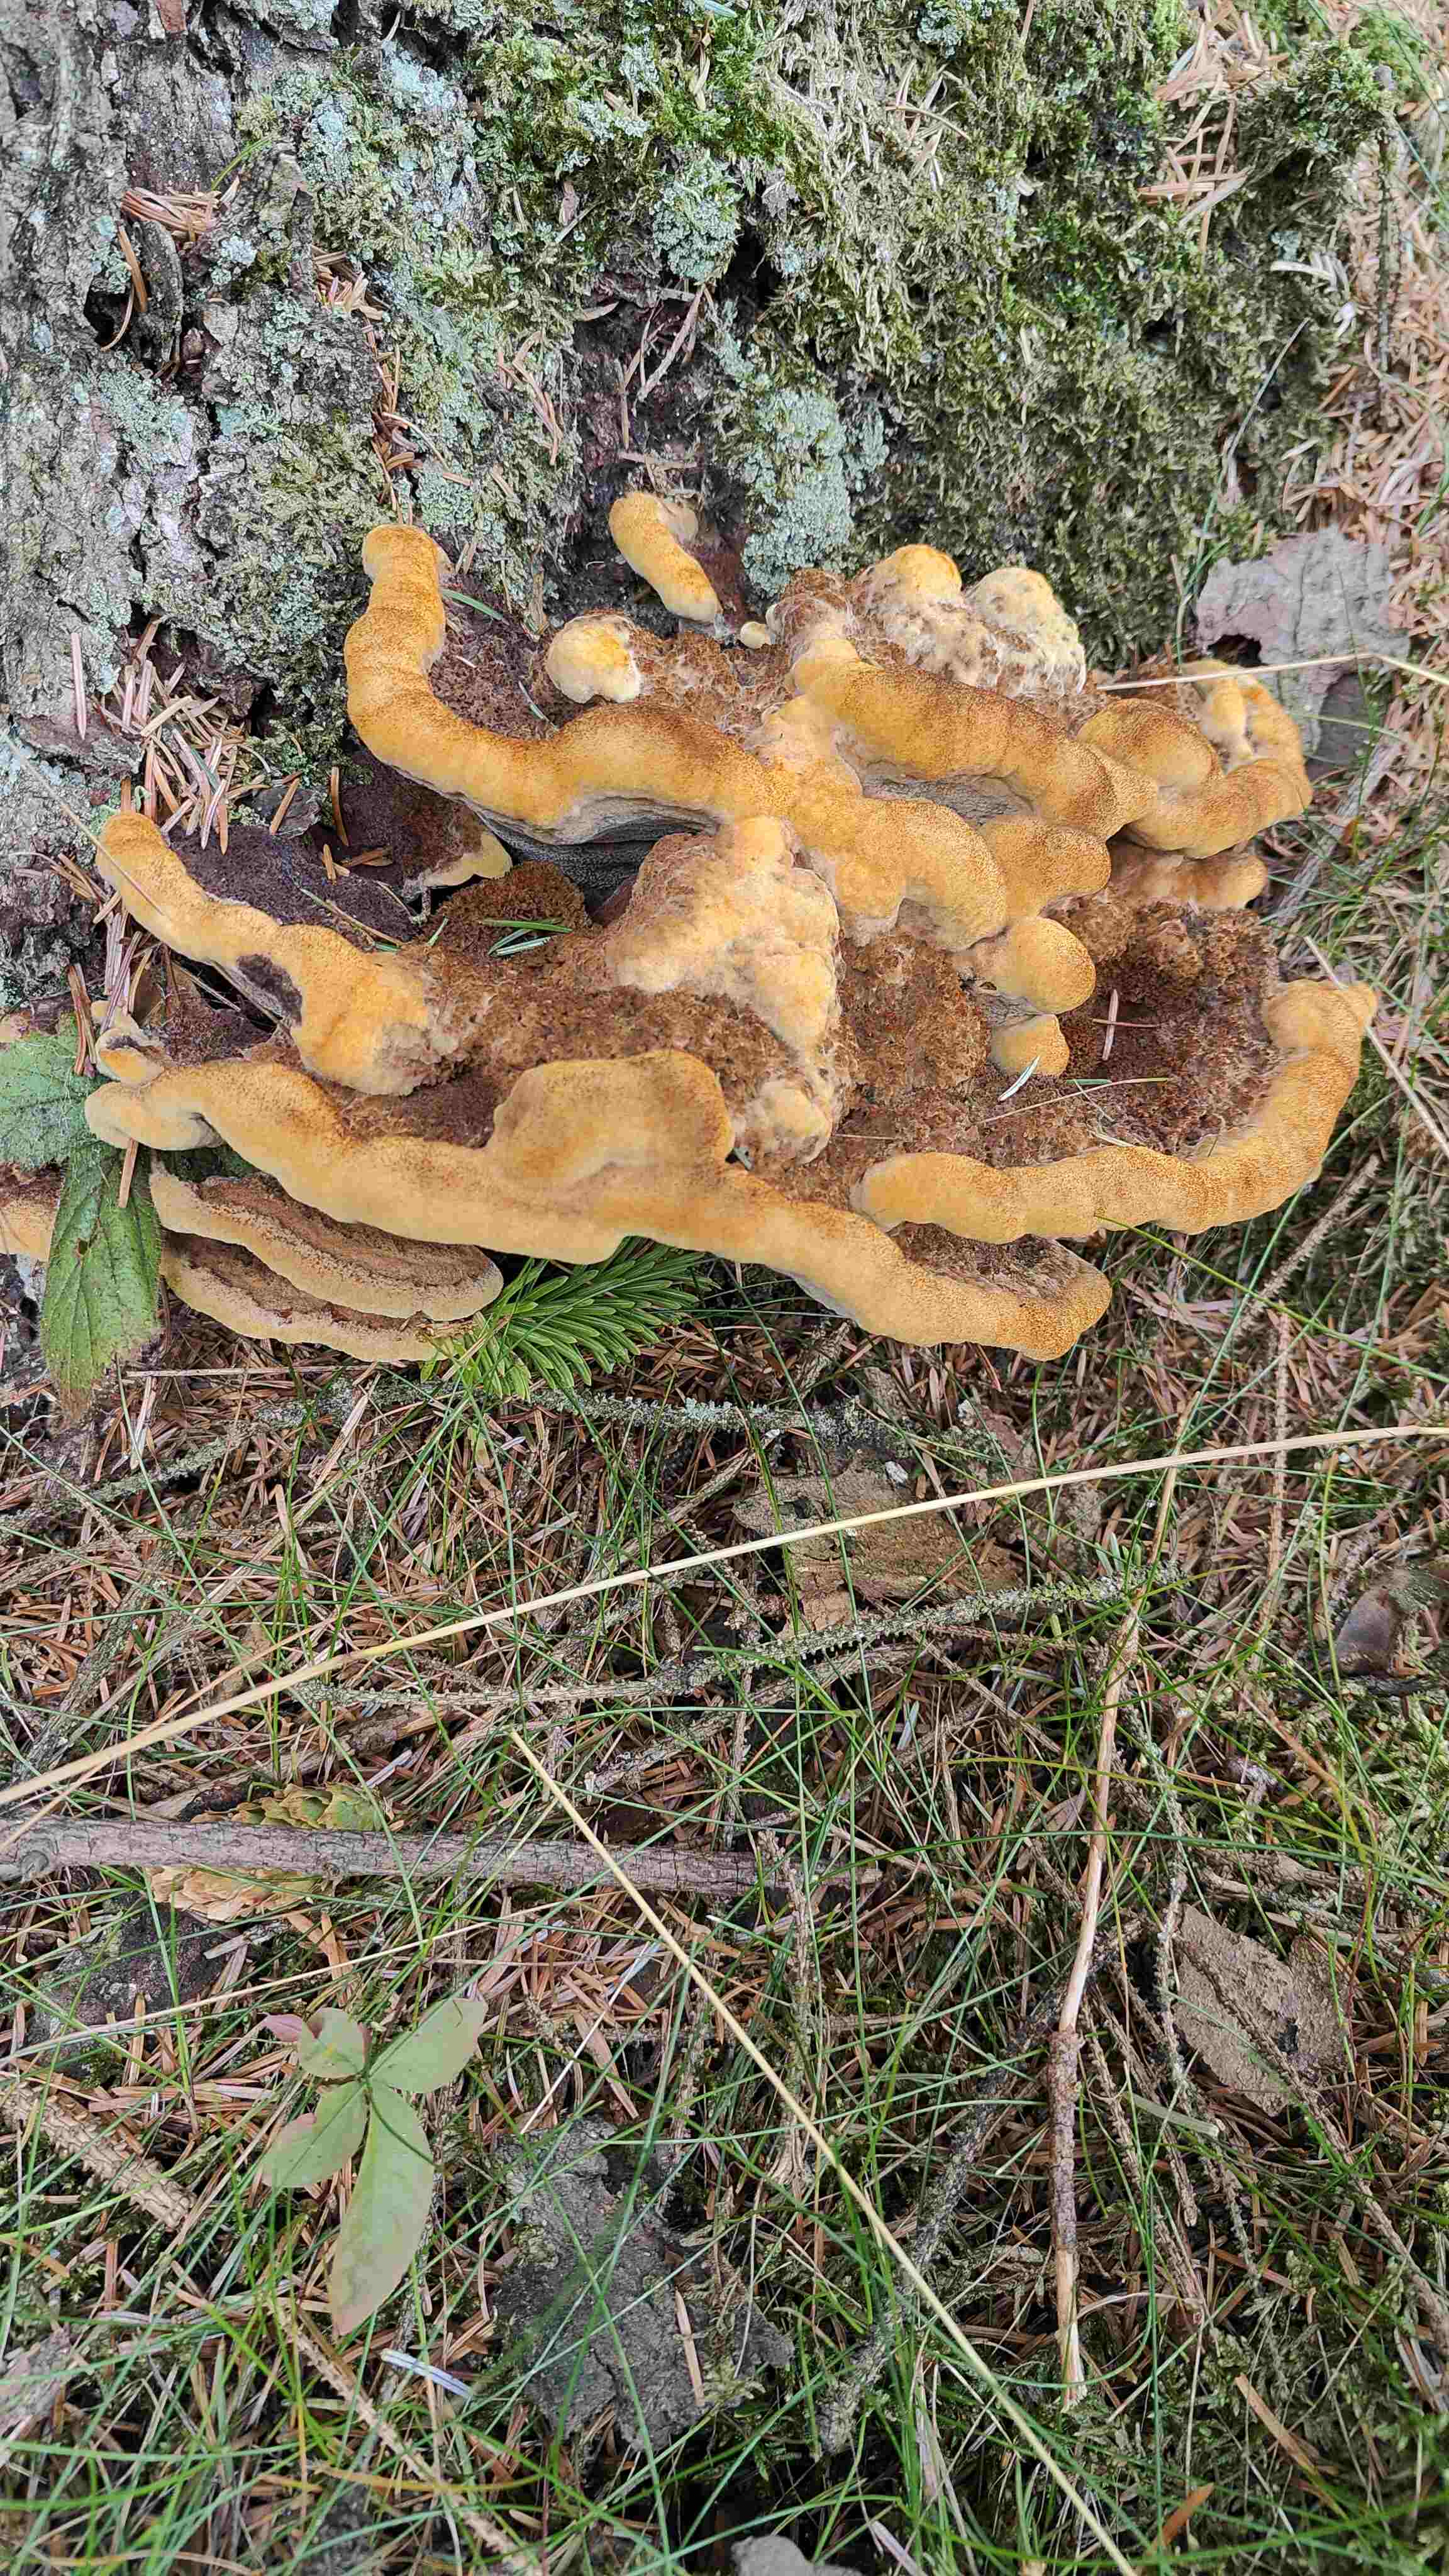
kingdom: Fungi
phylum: Basidiomycota
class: Agaricomycetes
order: Polyporales
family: Laetiporaceae
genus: Phaeolus
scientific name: Phaeolus schweinitzii
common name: brunporesvamp
